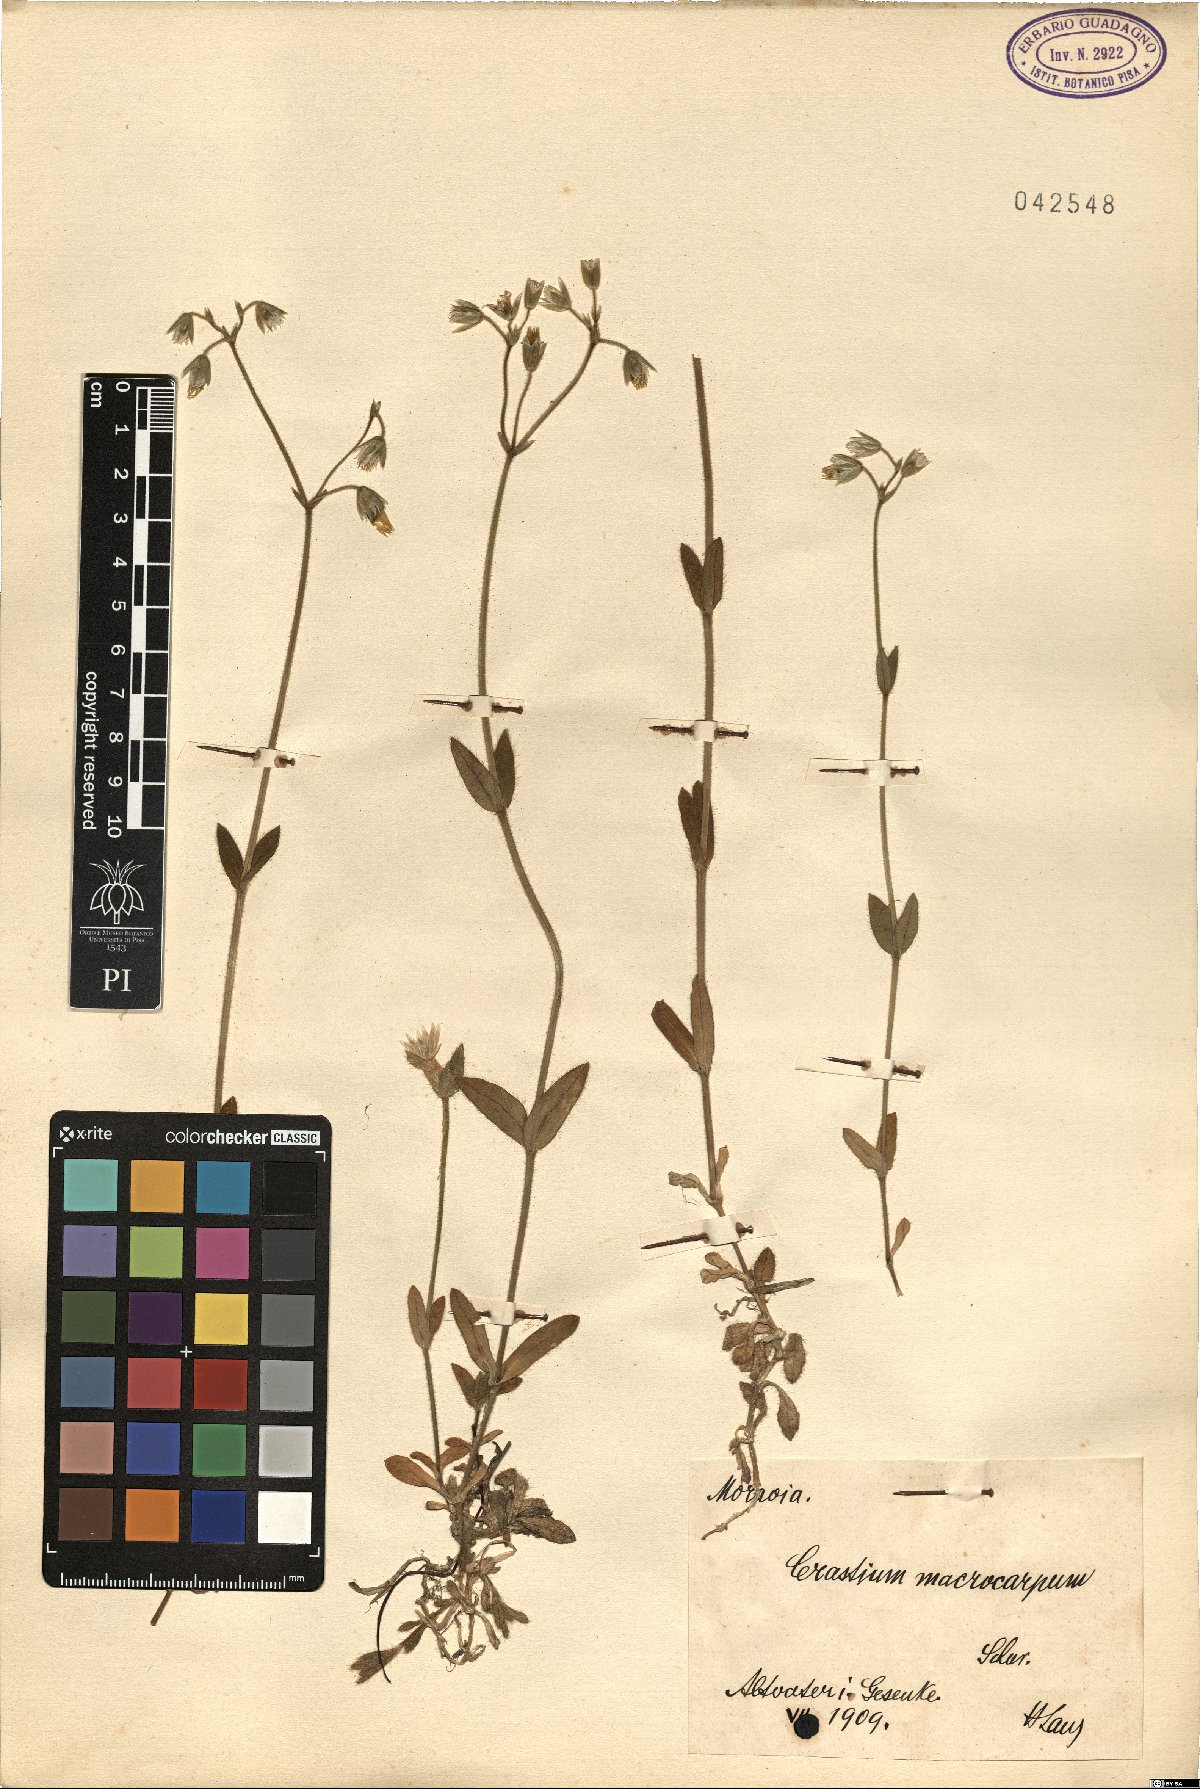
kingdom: Plantae
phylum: Tracheophyta
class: Magnoliopsida
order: Caryophyllales
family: Caryophyllaceae
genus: Cerastium
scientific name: Cerastium lucorum
